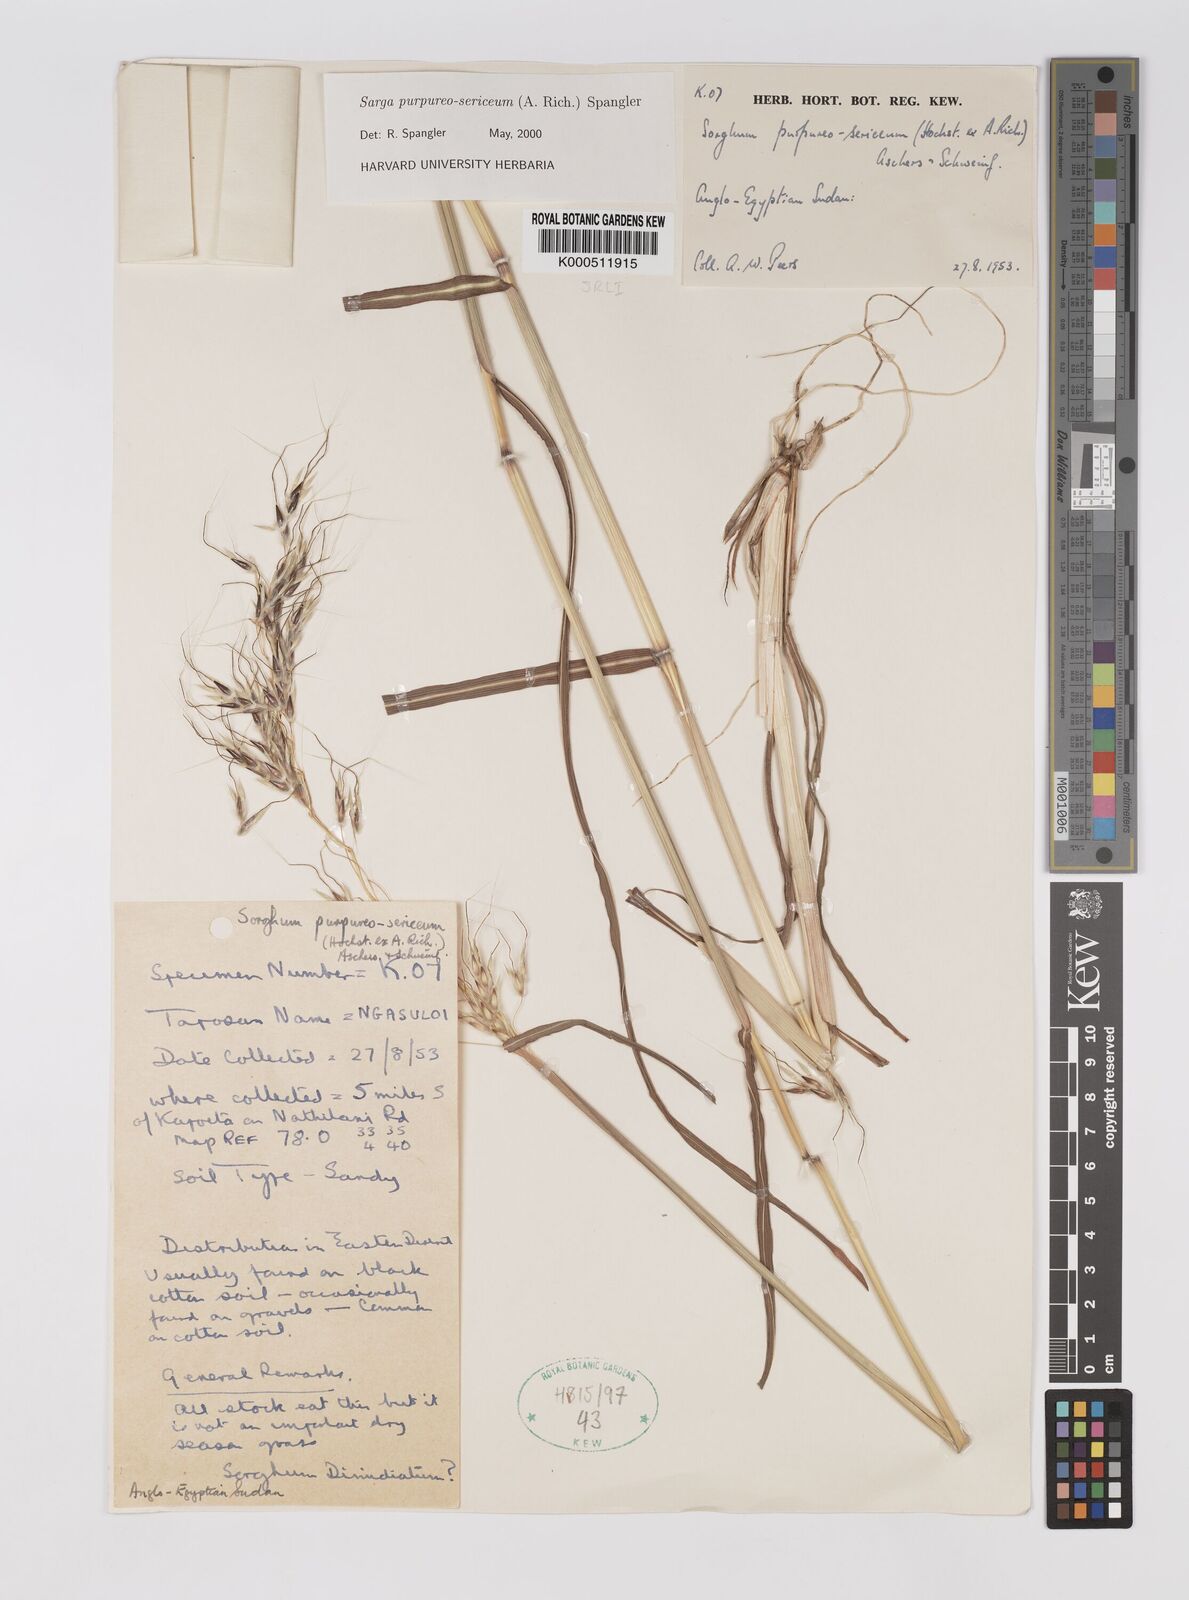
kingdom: Plantae
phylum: Tracheophyta
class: Liliopsida
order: Poales
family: Poaceae
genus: Sarga
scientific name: Sarga purpureosericea
